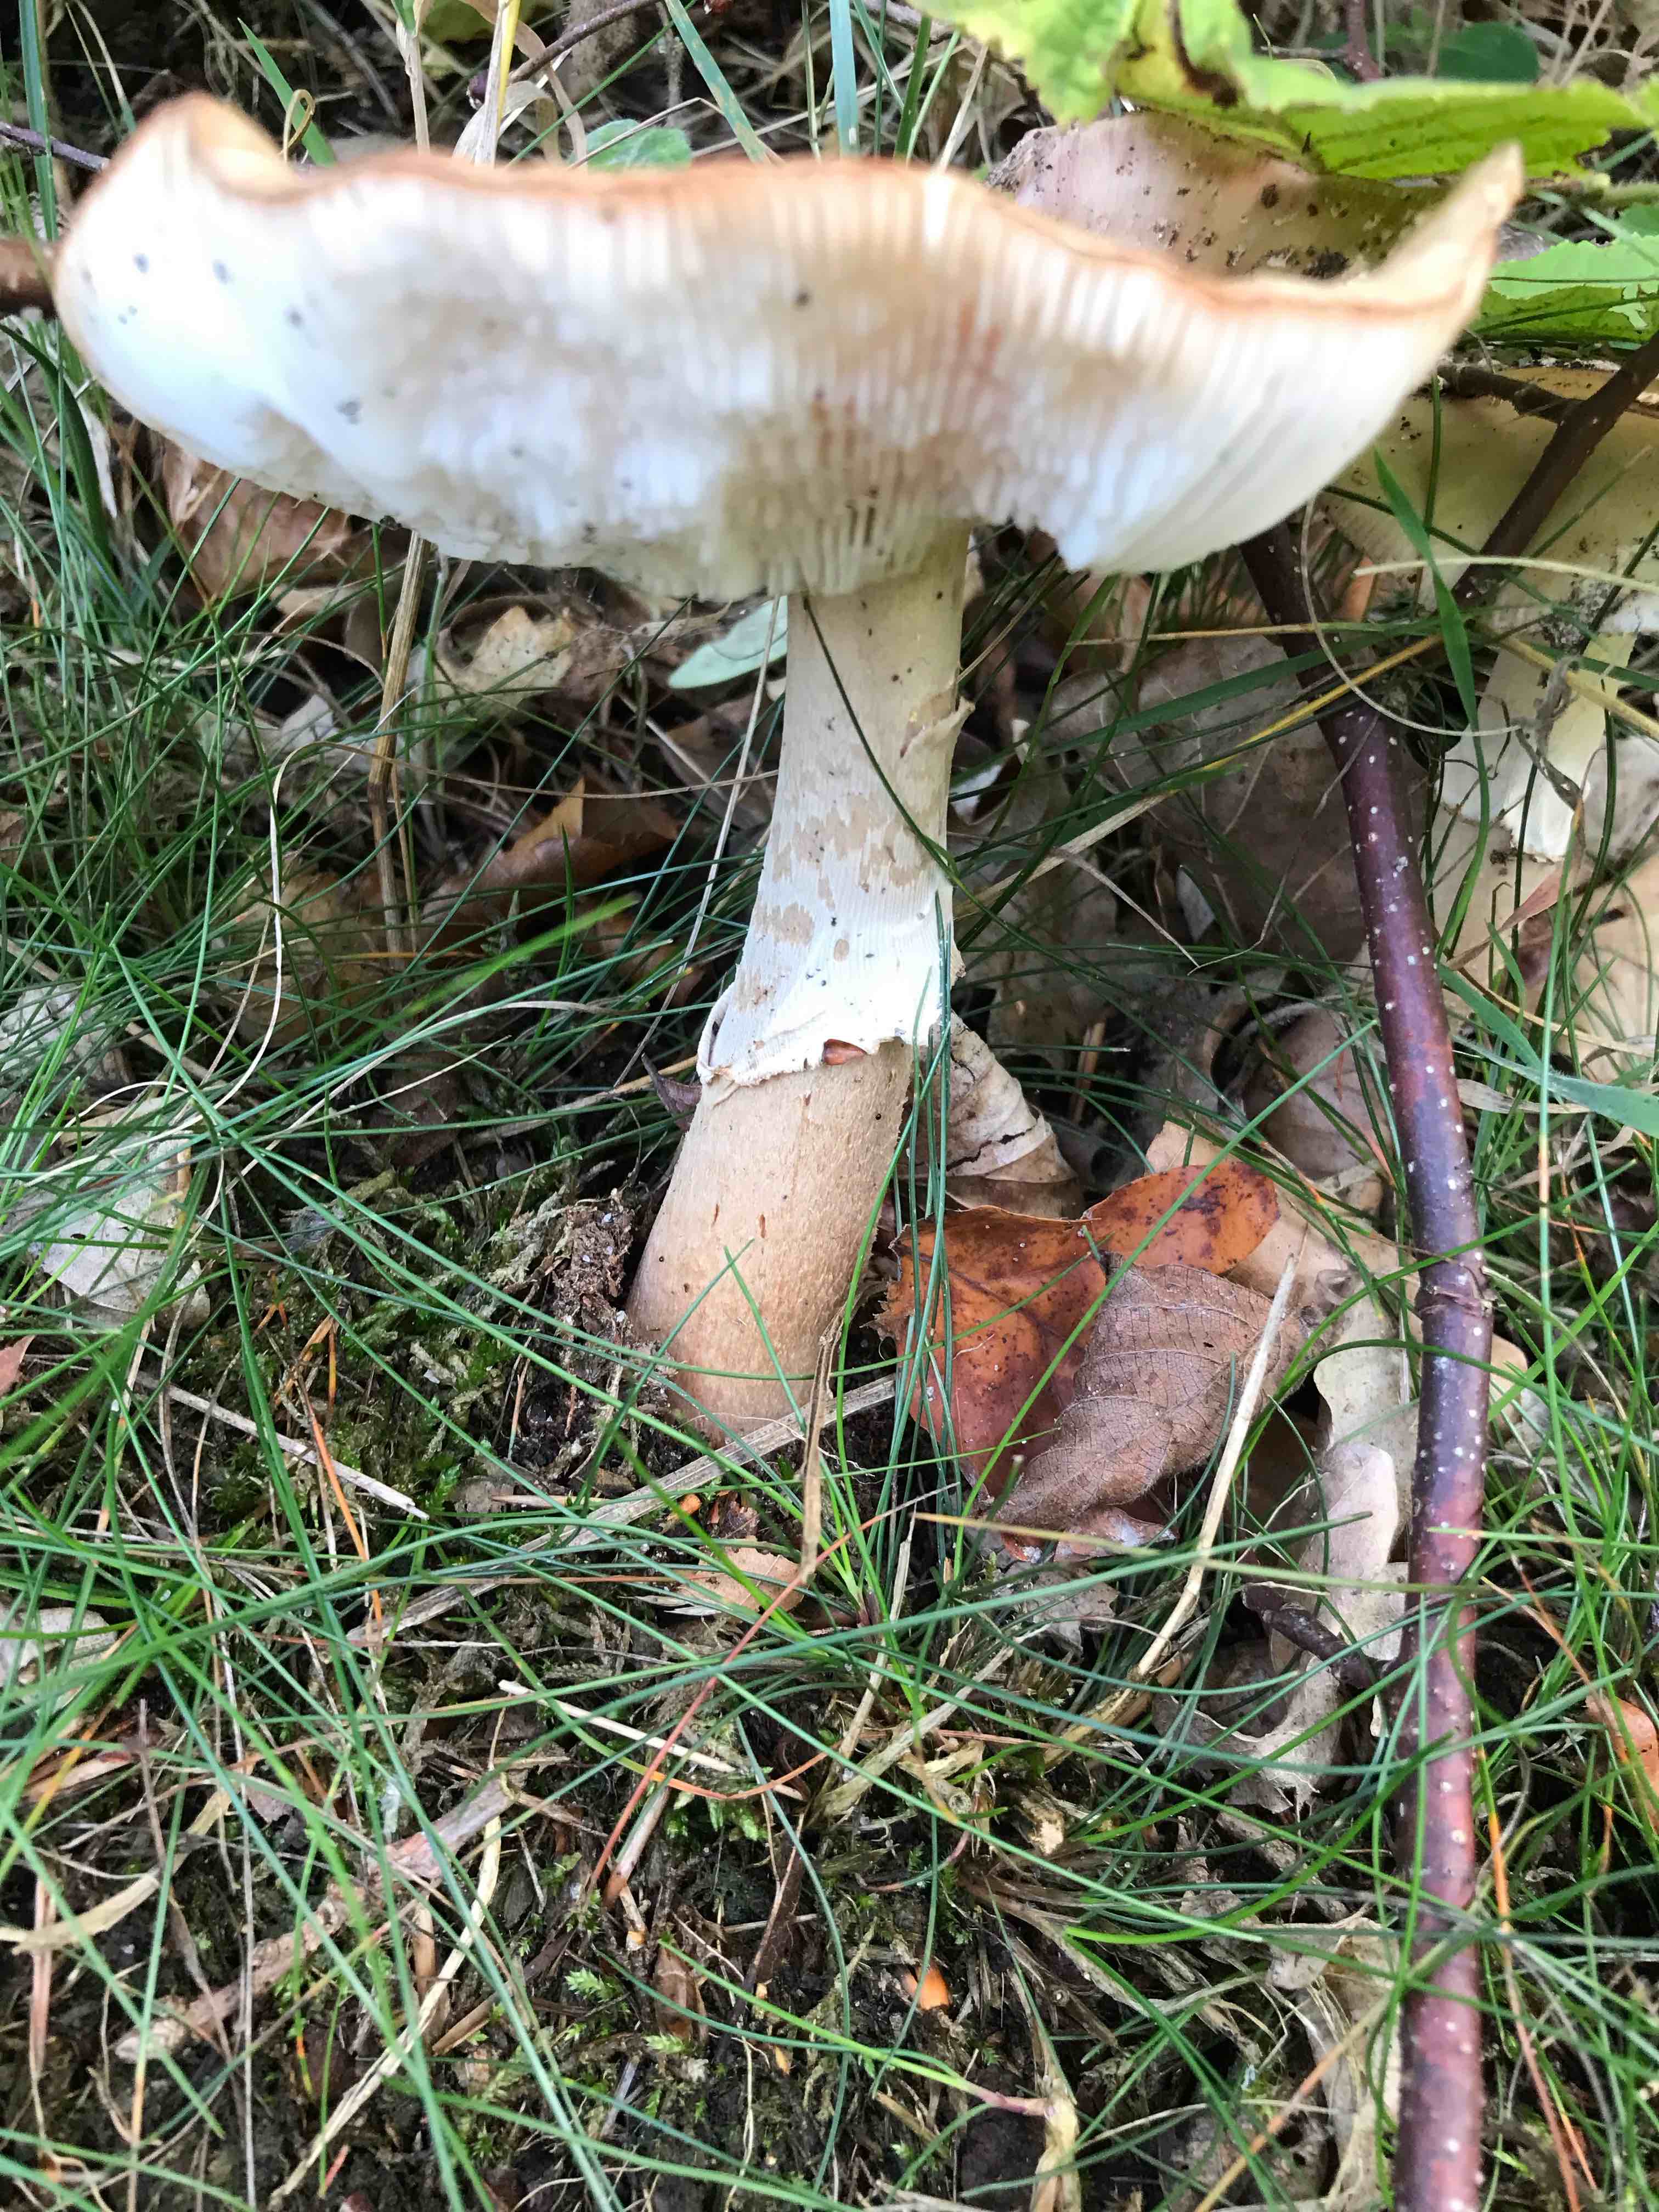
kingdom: Fungi
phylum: Basidiomycota
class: Agaricomycetes
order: Agaricales
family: Amanitaceae
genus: Amanita
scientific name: Amanita rubescens
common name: rødmende fluesvamp
